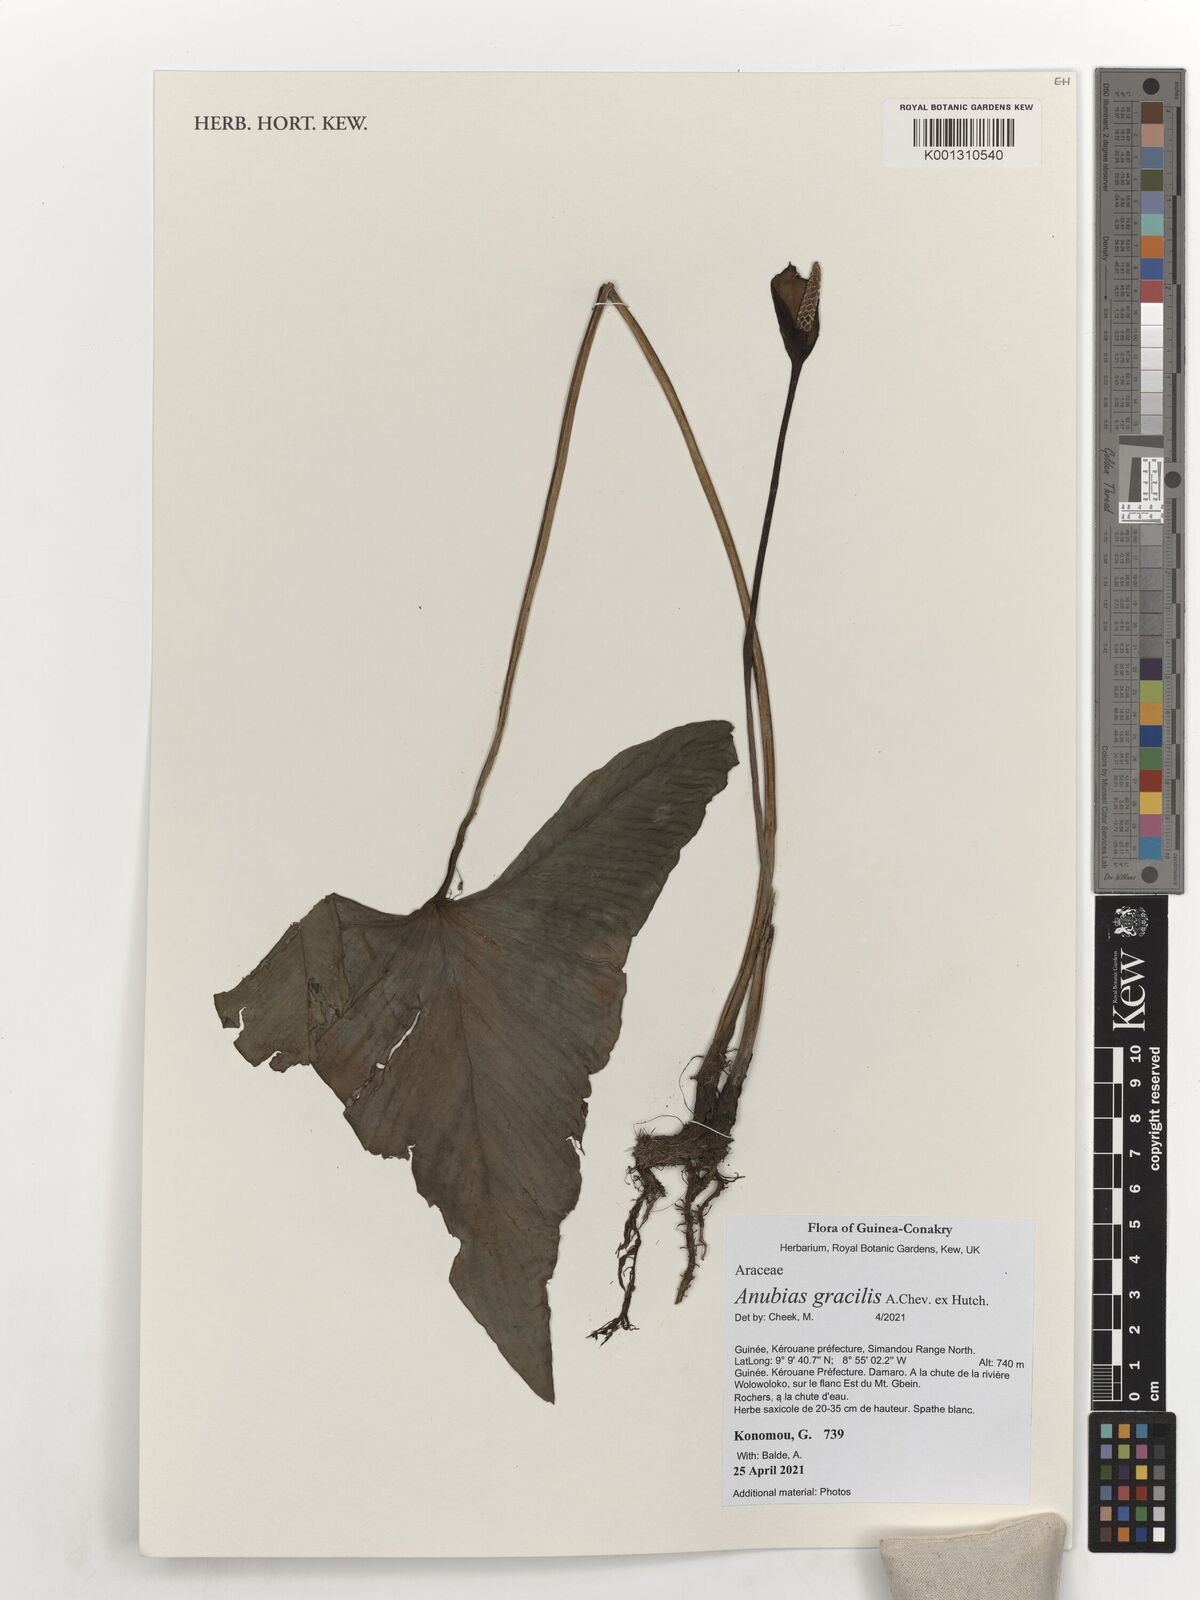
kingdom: Plantae
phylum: Tracheophyta
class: Liliopsida
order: Alismatales
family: Araceae
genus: Anubias
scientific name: Anubias gracilis
